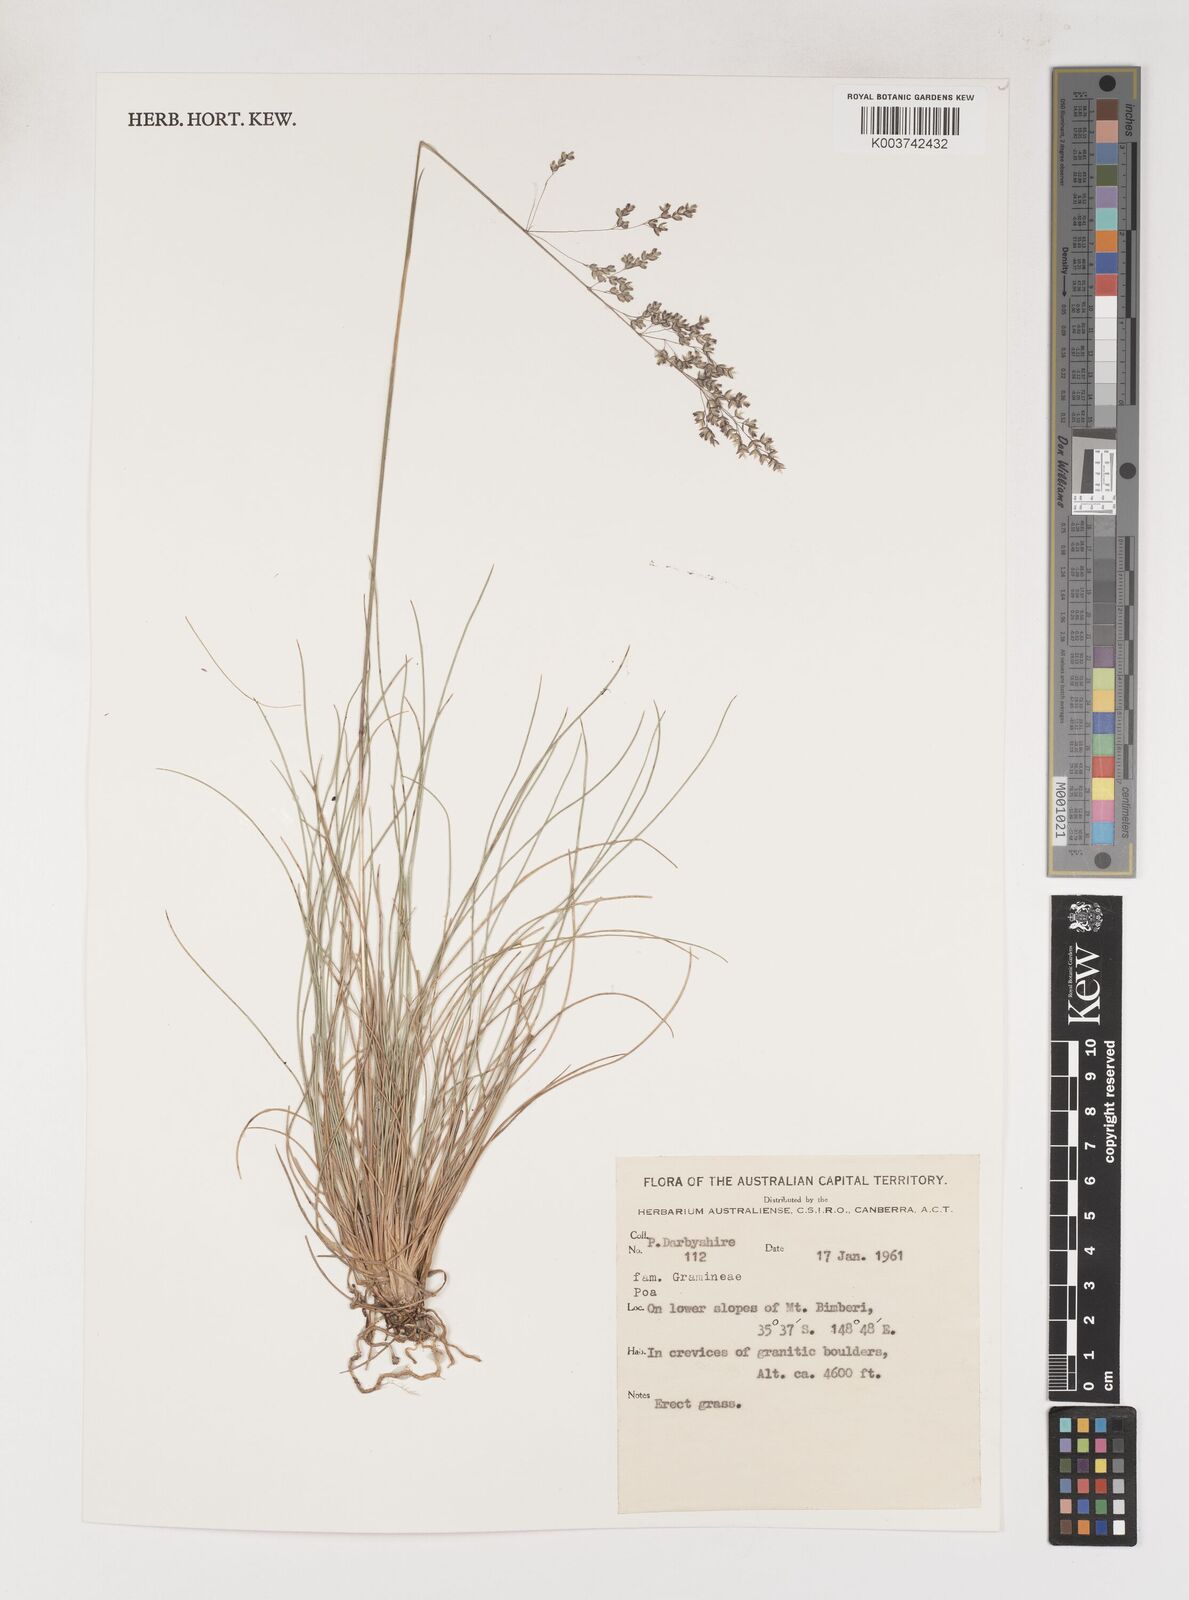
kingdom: Plantae
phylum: Tracheophyta
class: Liliopsida
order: Poales
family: Poaceae
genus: Poa
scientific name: Poa
